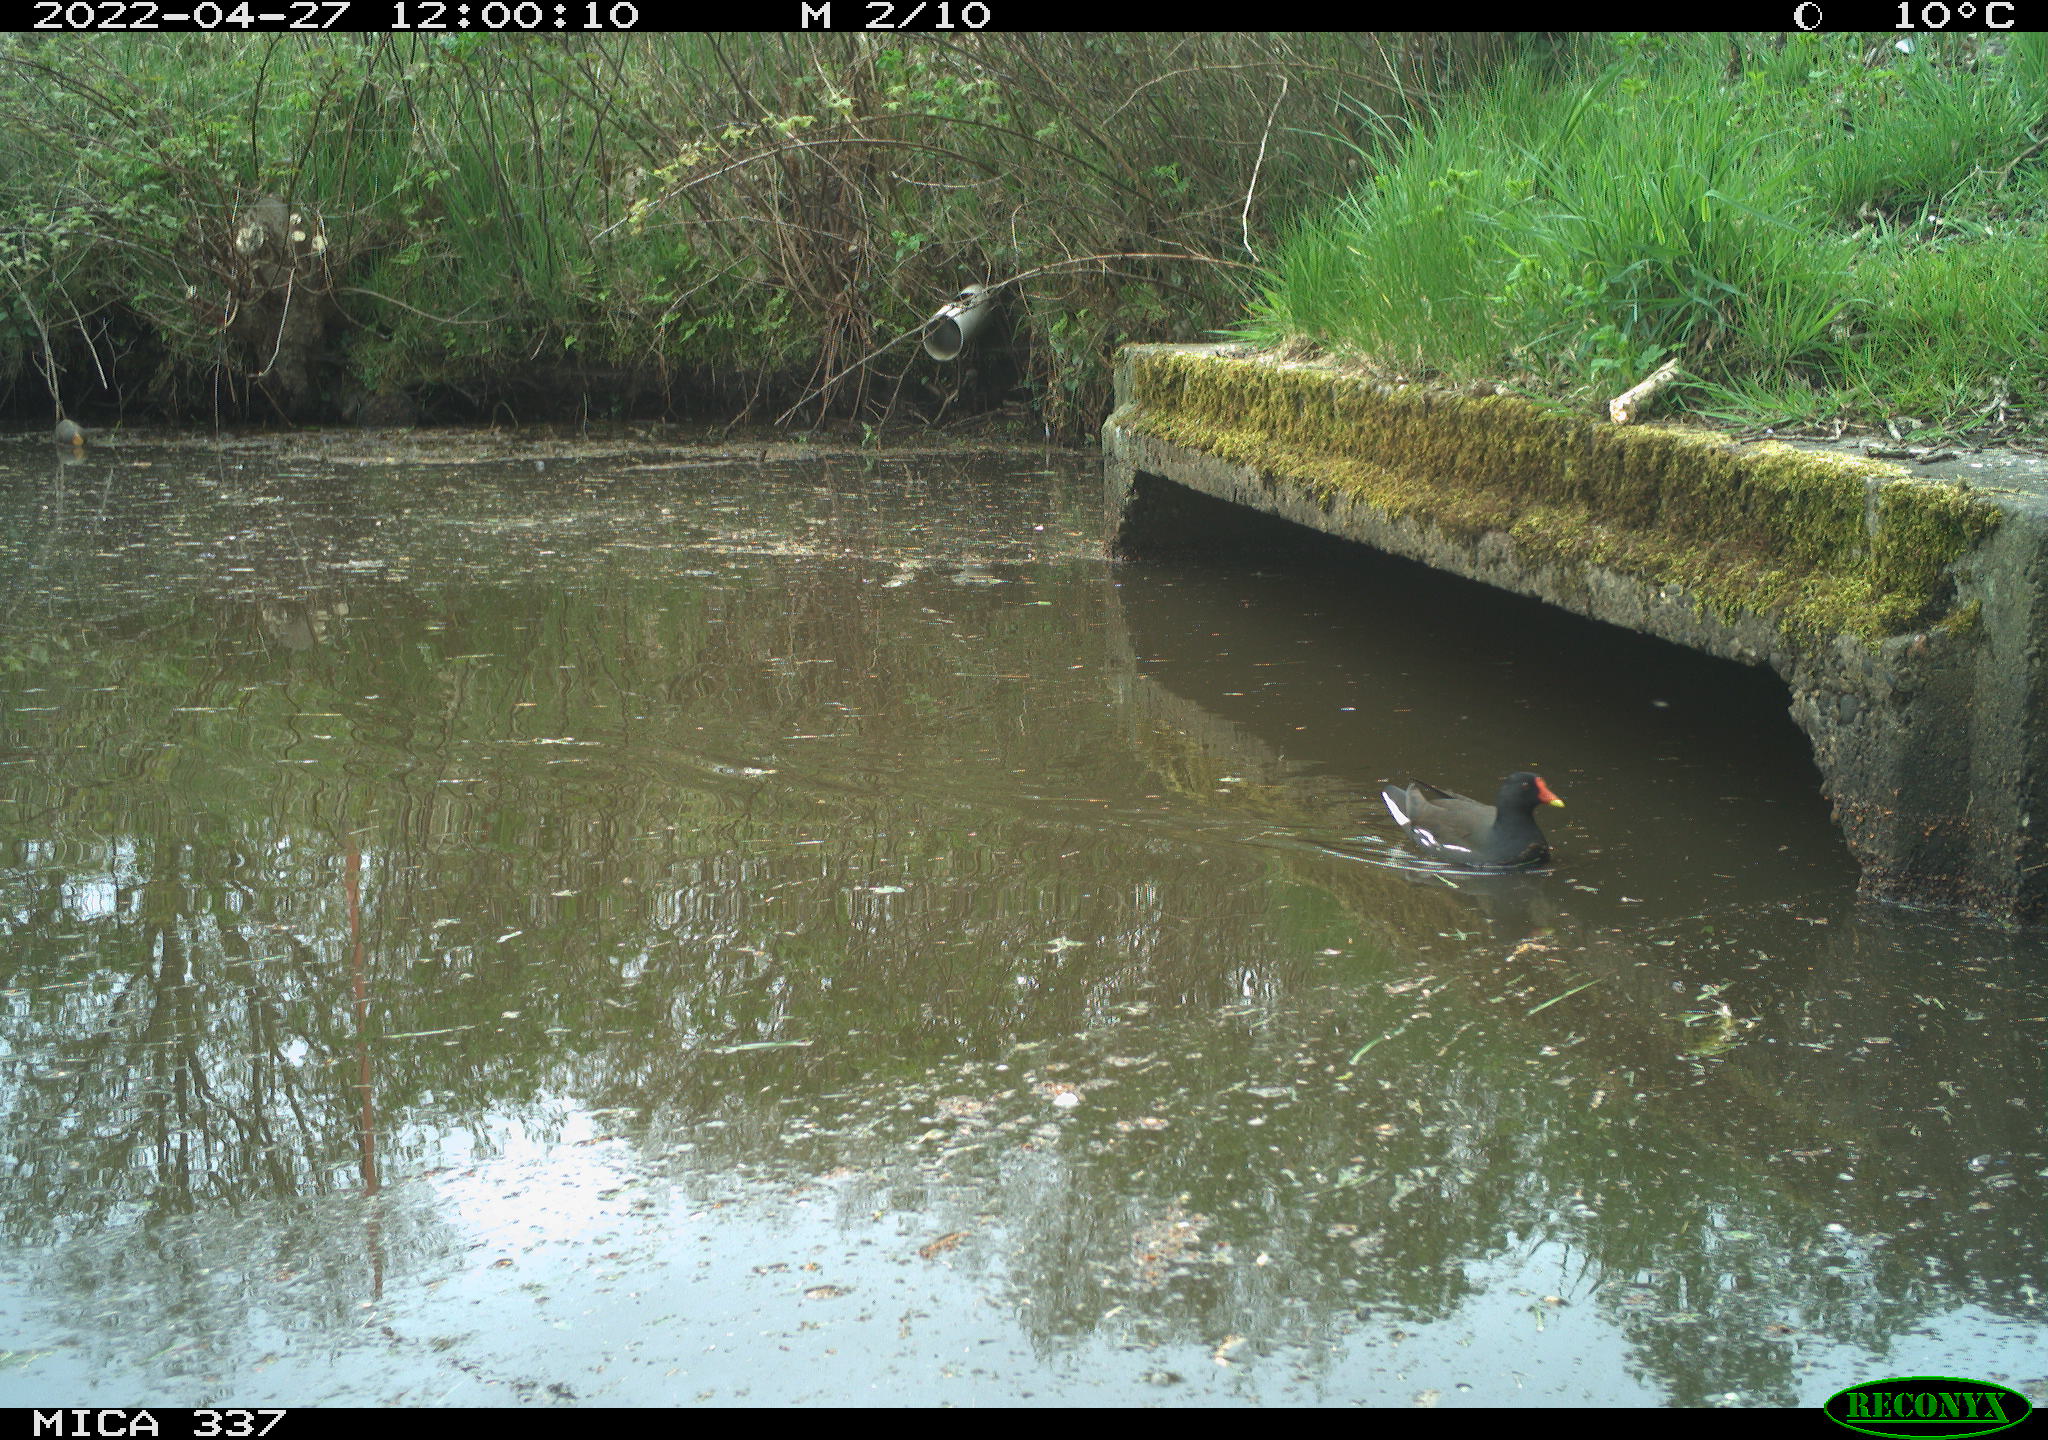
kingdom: Animalia
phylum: Chordata
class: Aves
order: Gruiformes
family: Rallidae
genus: Gallinula
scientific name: Gallinula chloropus
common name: Common moorhen
